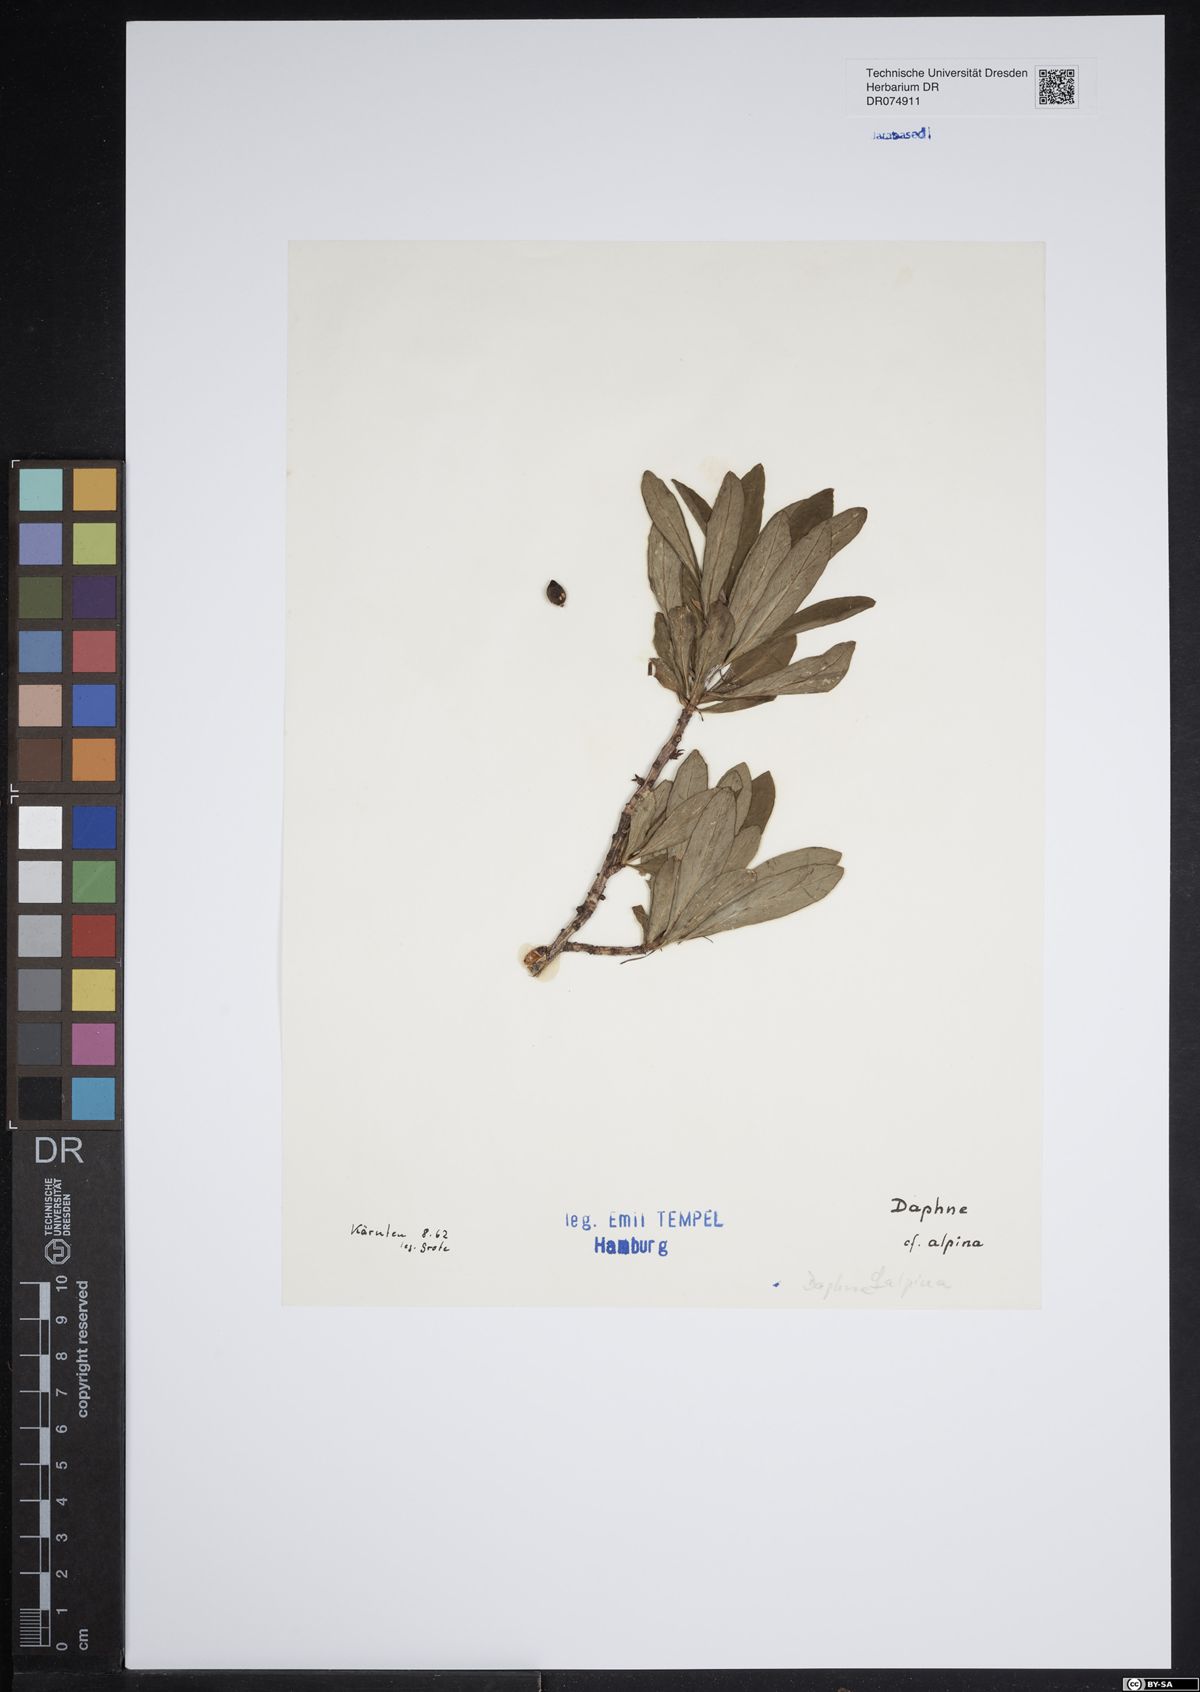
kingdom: Plantae
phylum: Tracheophyta
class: Magnoliopsida
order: Malvales
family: Thymelaeaceae
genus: Daphne
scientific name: Daphne alpina
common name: Alpine daphne
